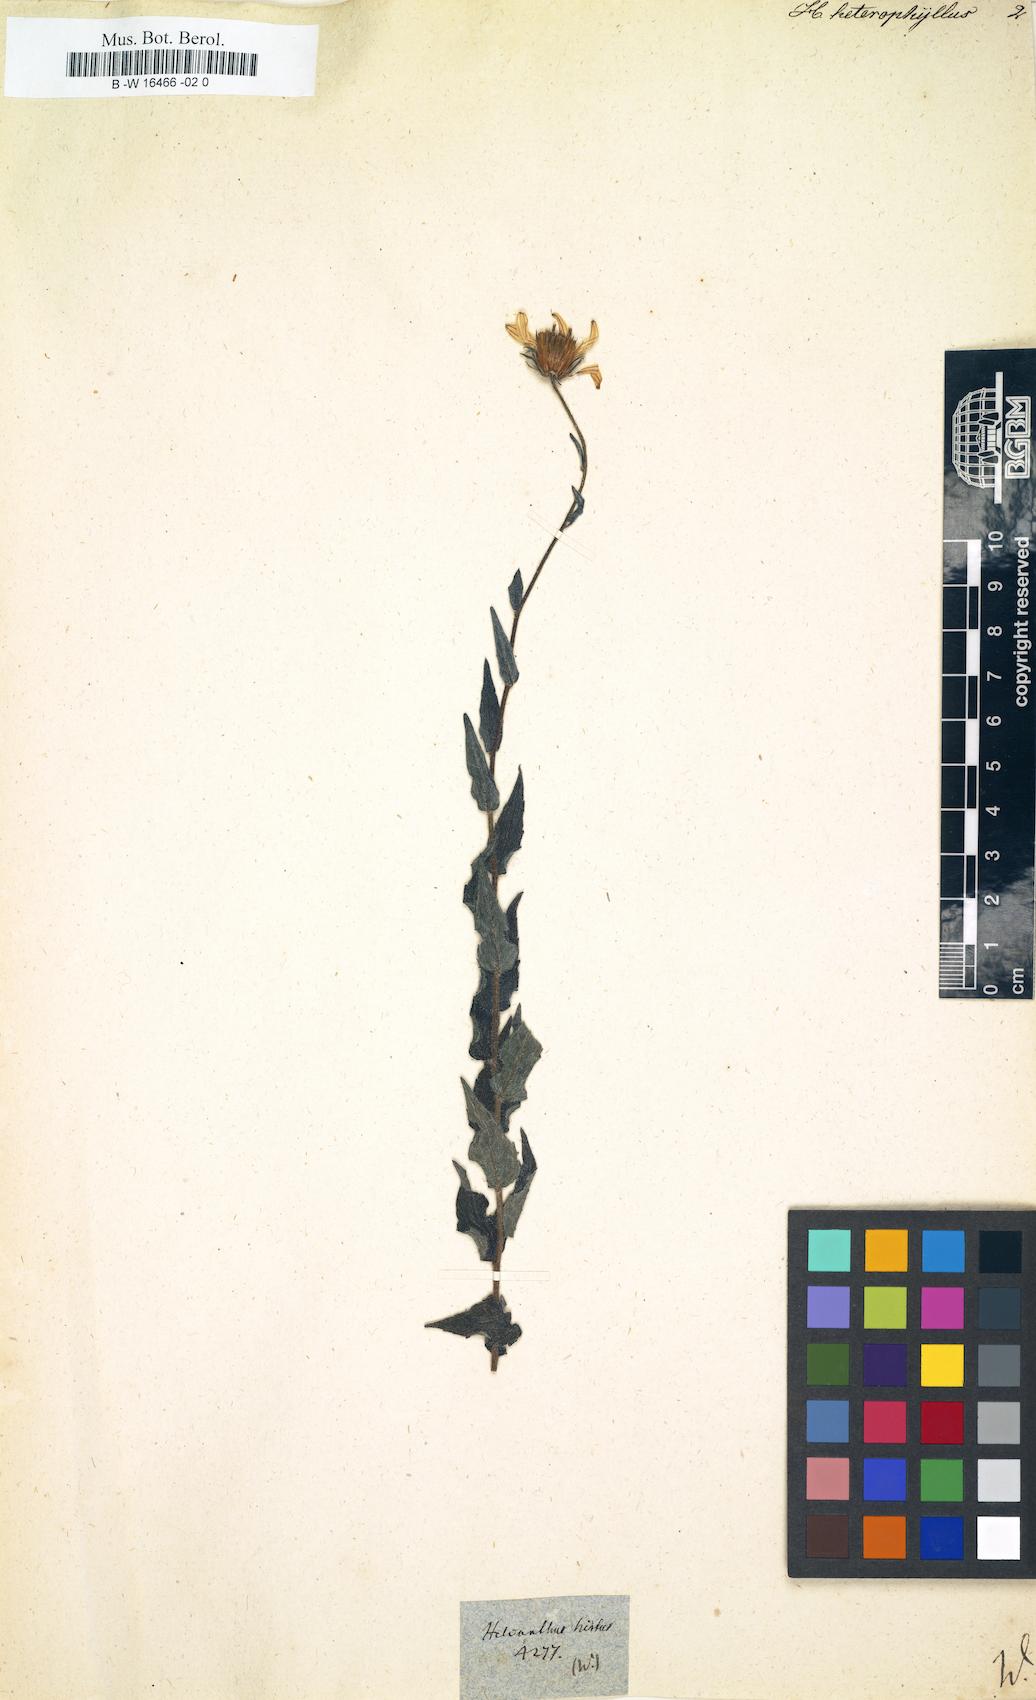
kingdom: Plantae
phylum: Tracheophyta
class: Magnoliopsida
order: Asterales
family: Asteraceae
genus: Helianthus
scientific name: Helianthus heterophyllus
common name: Wetland sunflower
